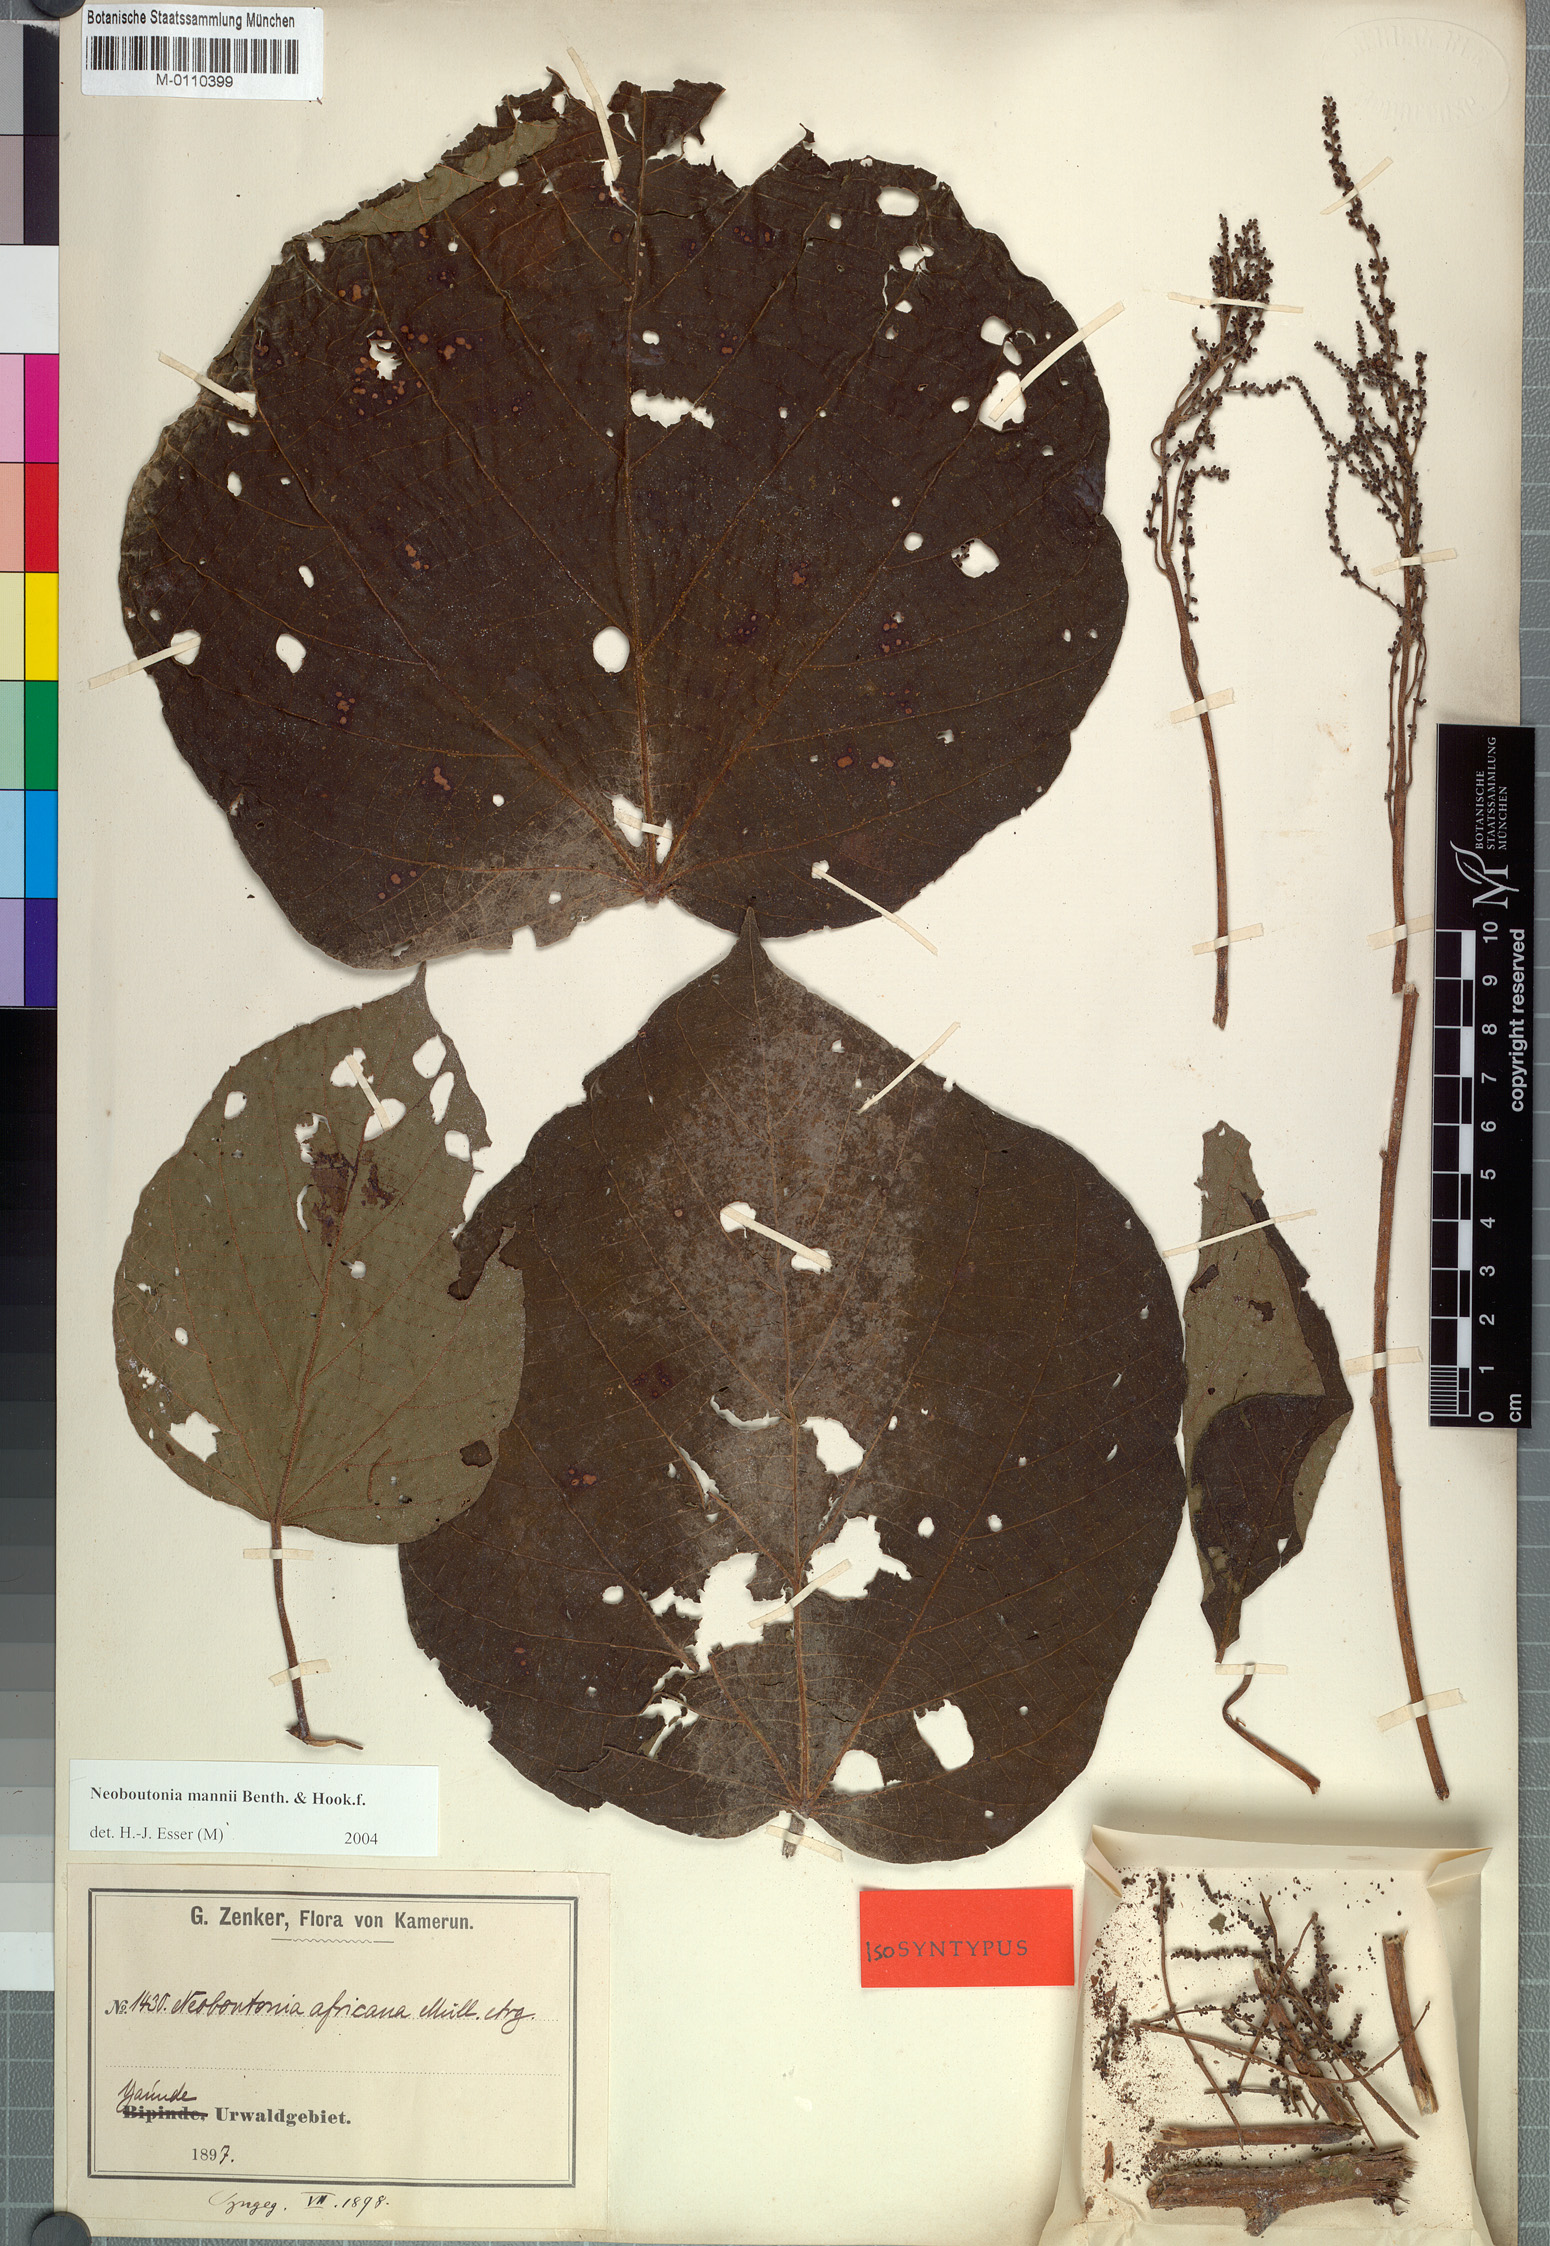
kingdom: Plantae
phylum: Tracheophyta
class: Magnoliopsida
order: Malpighiales
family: Euphorbiaceae
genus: Neoboutonia
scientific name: Neoboutonia mannii
